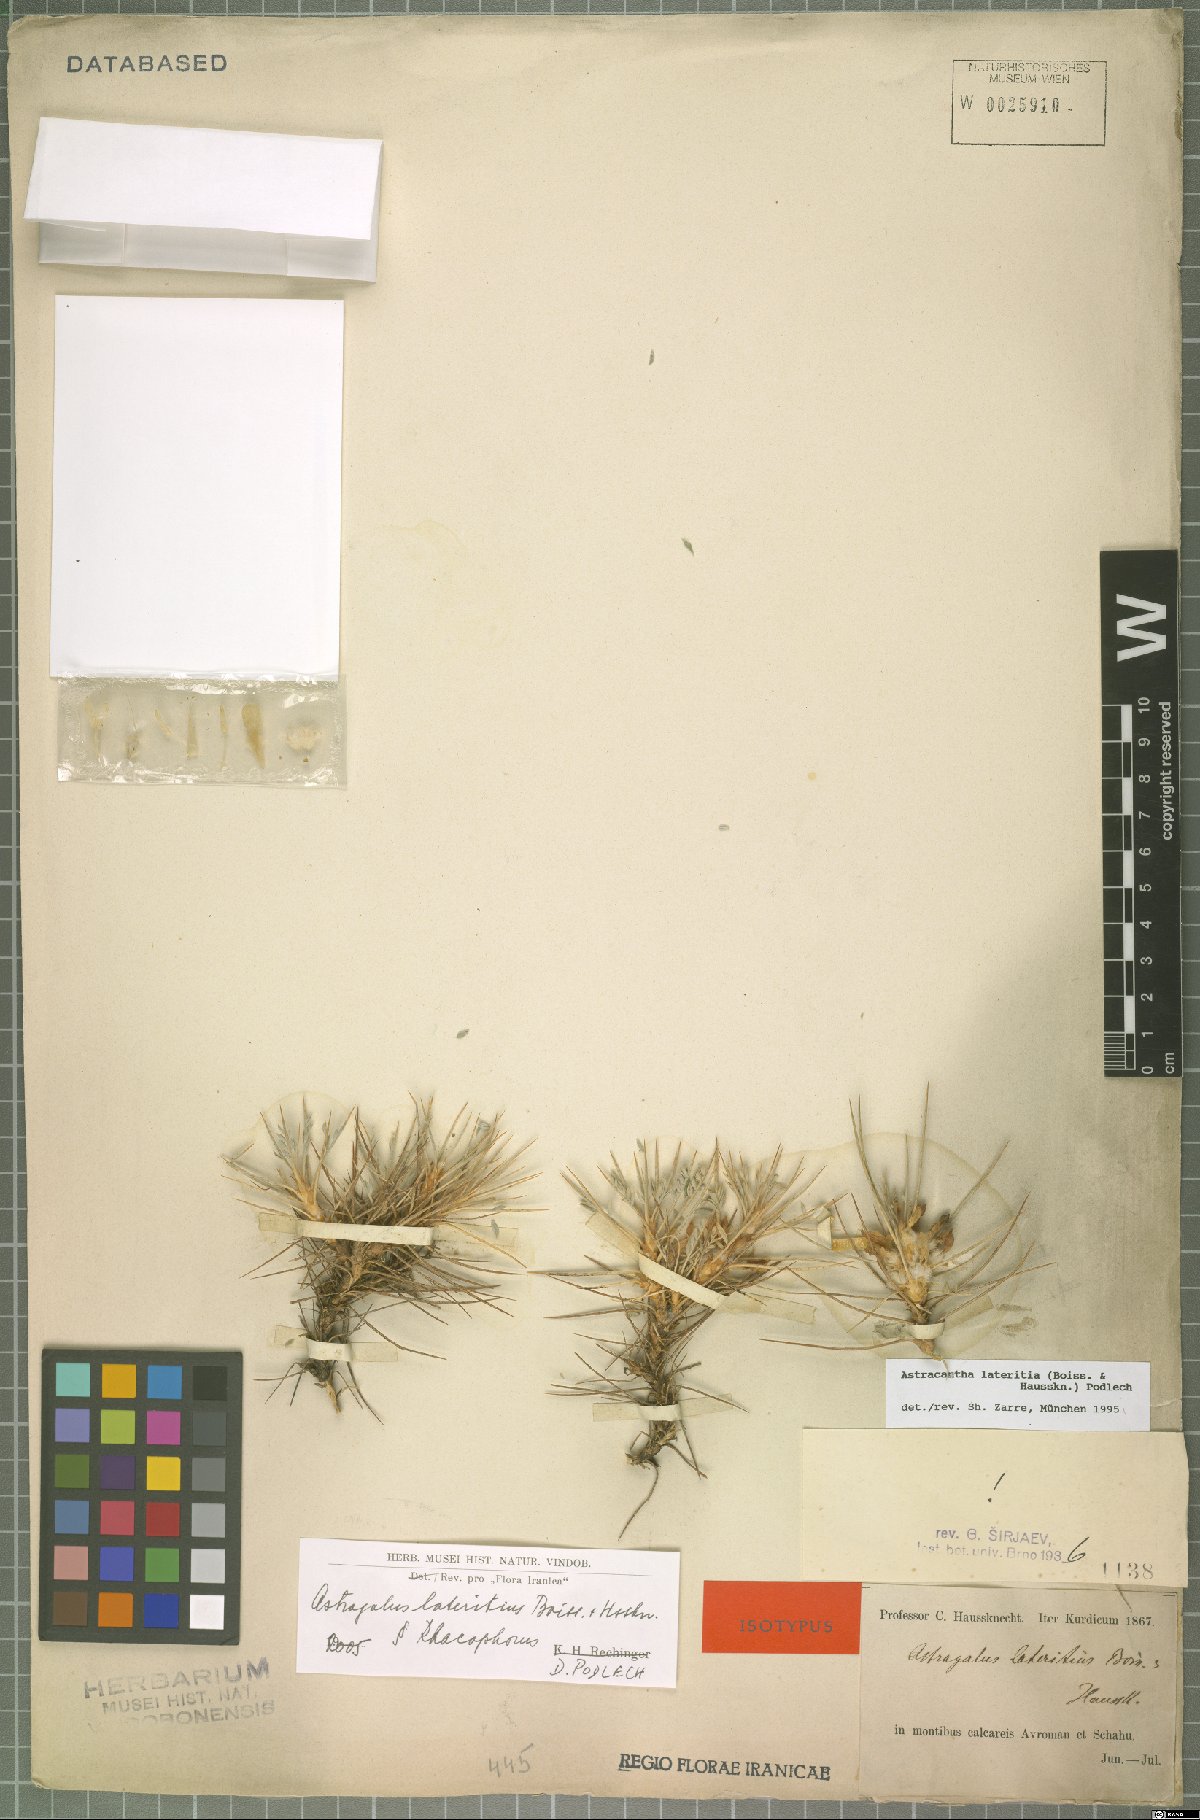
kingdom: Plantae
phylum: Tracheophyta
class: Magnoliopsida
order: Fabales
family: Fabaceae
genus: Astragalus
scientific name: Astragalus lateritius
